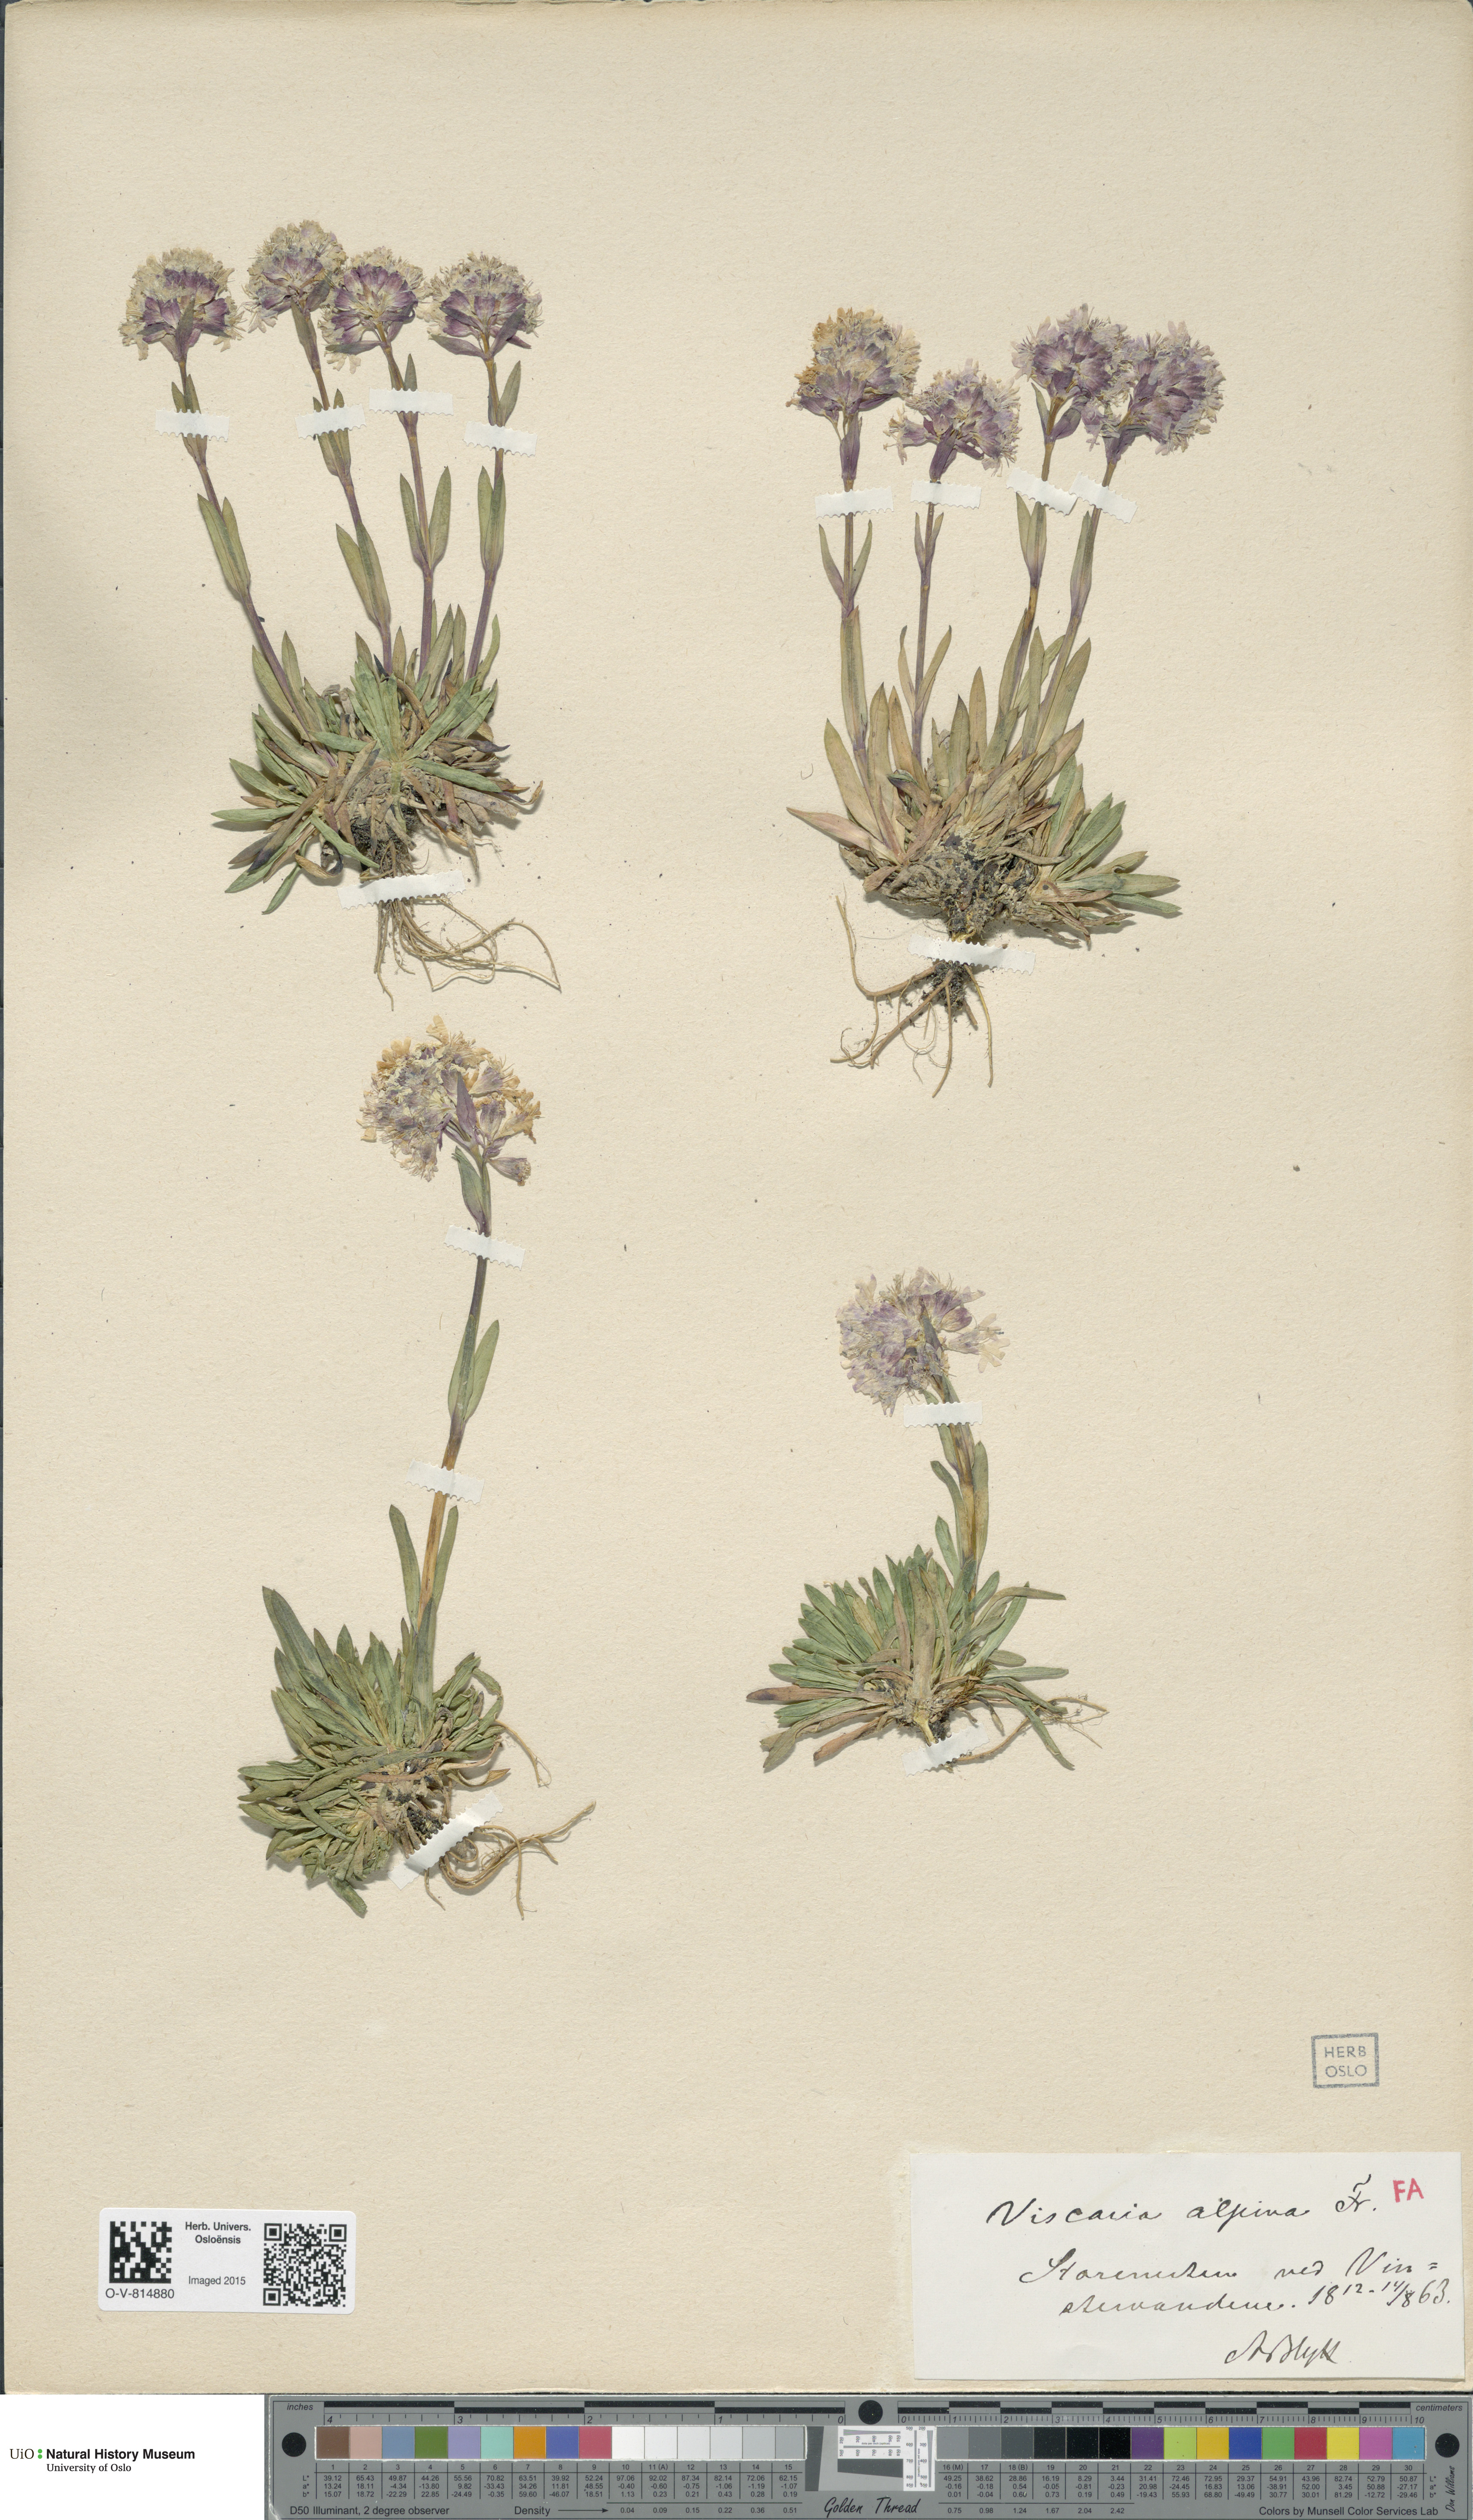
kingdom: Plantae
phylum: Tracheophyta
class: Magnoliopsida
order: Caryophyllales
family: Caryophyllaceae
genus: Viscaria
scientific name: Viscaria alpina
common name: Alpine campion
